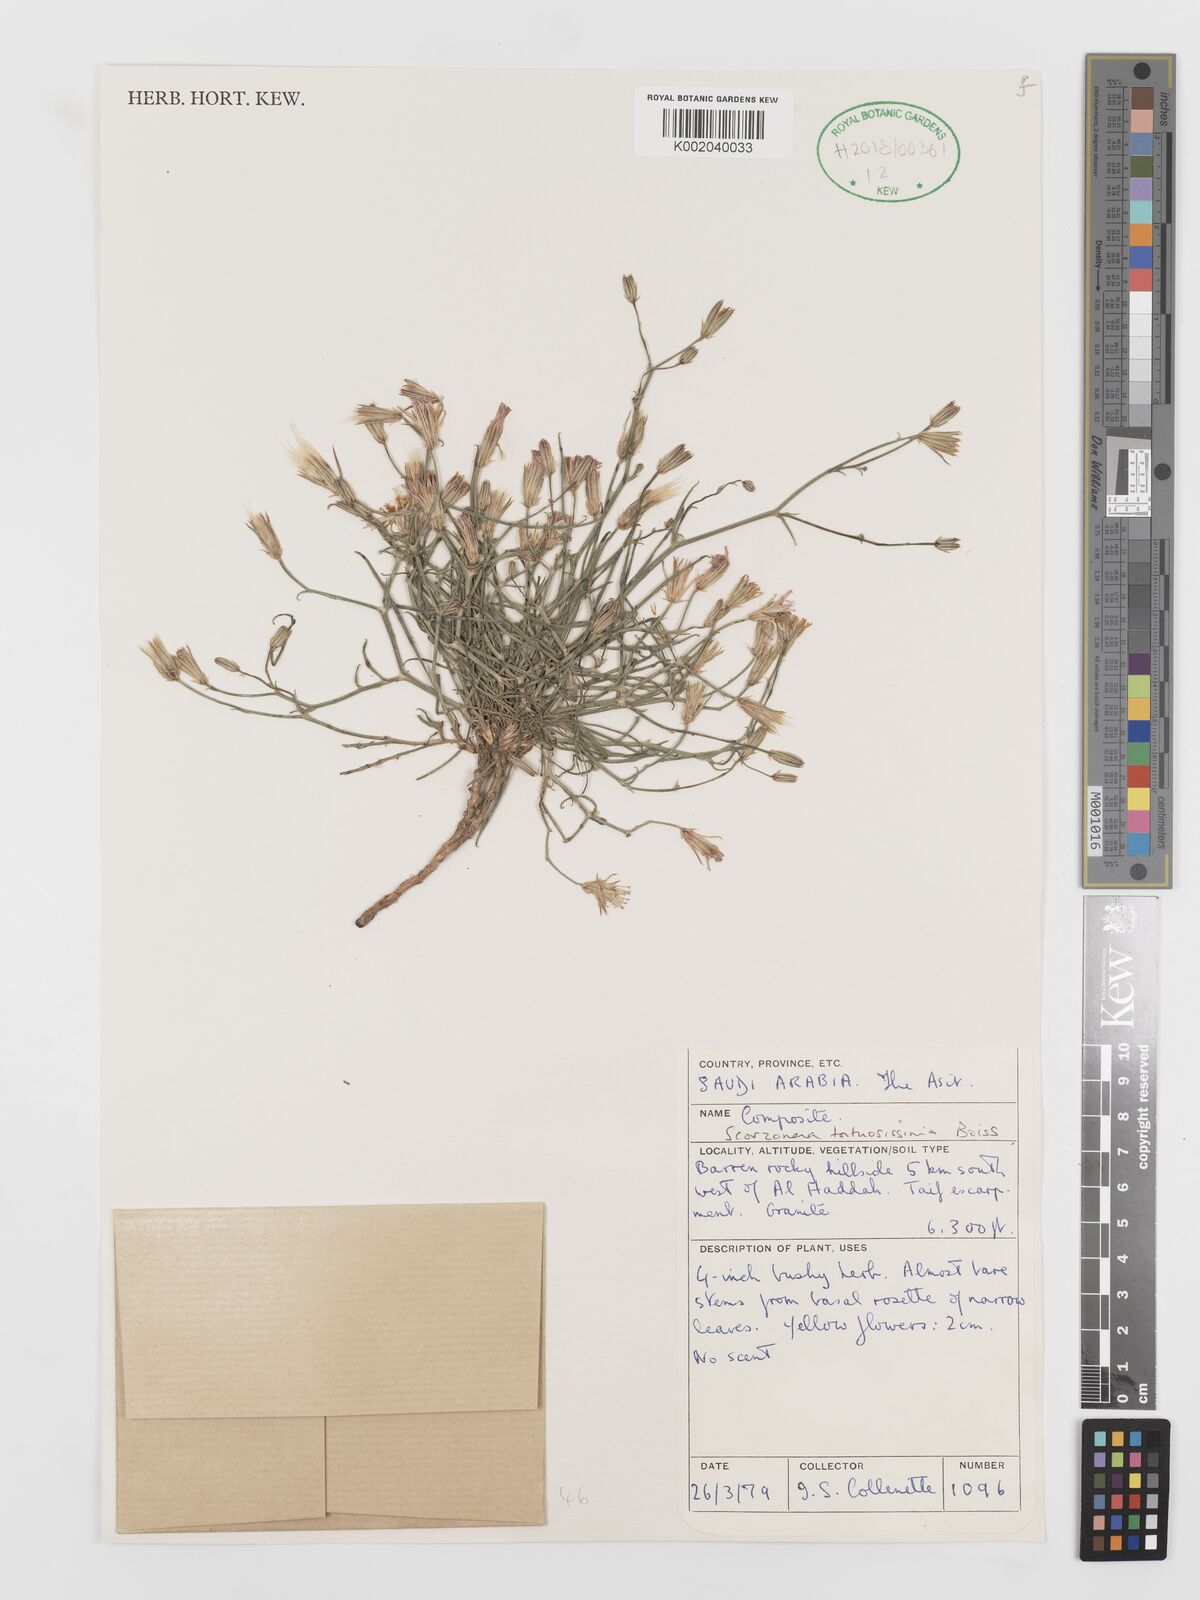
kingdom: Plantae
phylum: Tracheophyta
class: Magnoliopsida
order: Asterales
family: Asteraceae
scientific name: Asteraceae
